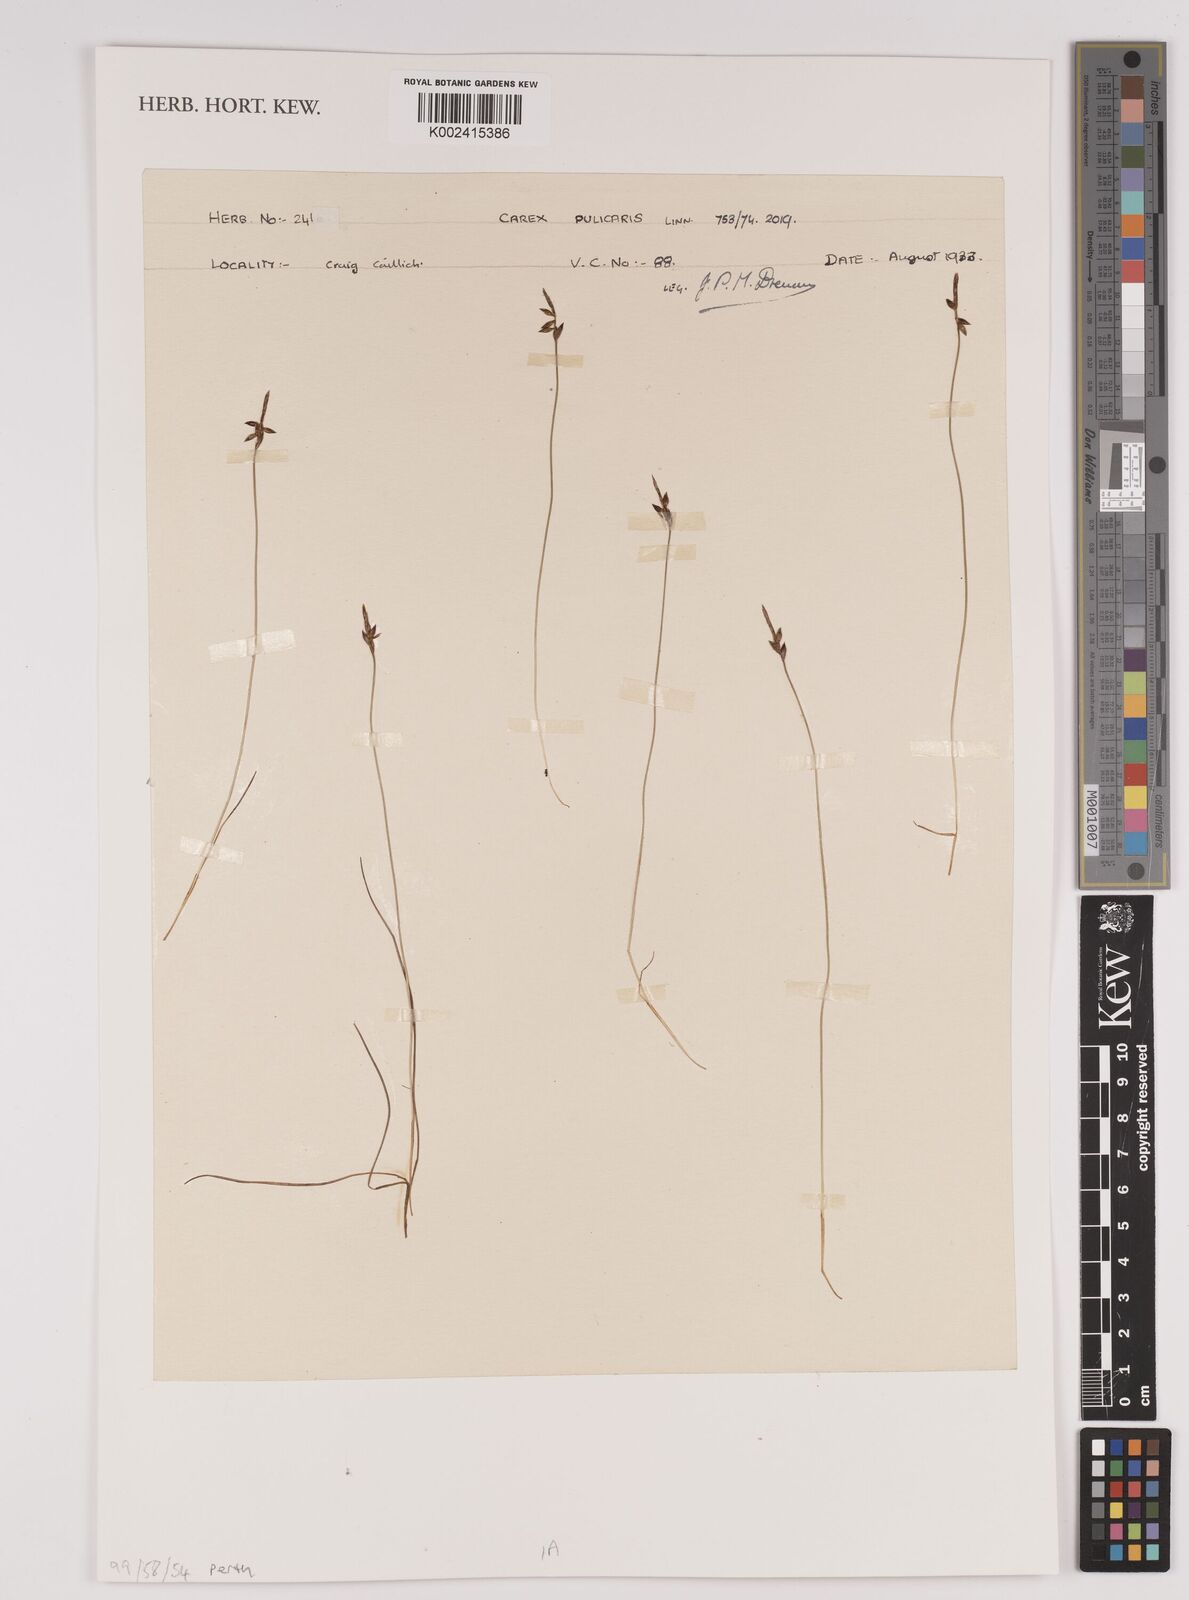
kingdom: Plantae
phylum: Tracheophyta
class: Liliopsida
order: Poales
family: Cyperaceae
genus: Carex
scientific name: Carex pulicaris
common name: Flea sedge
